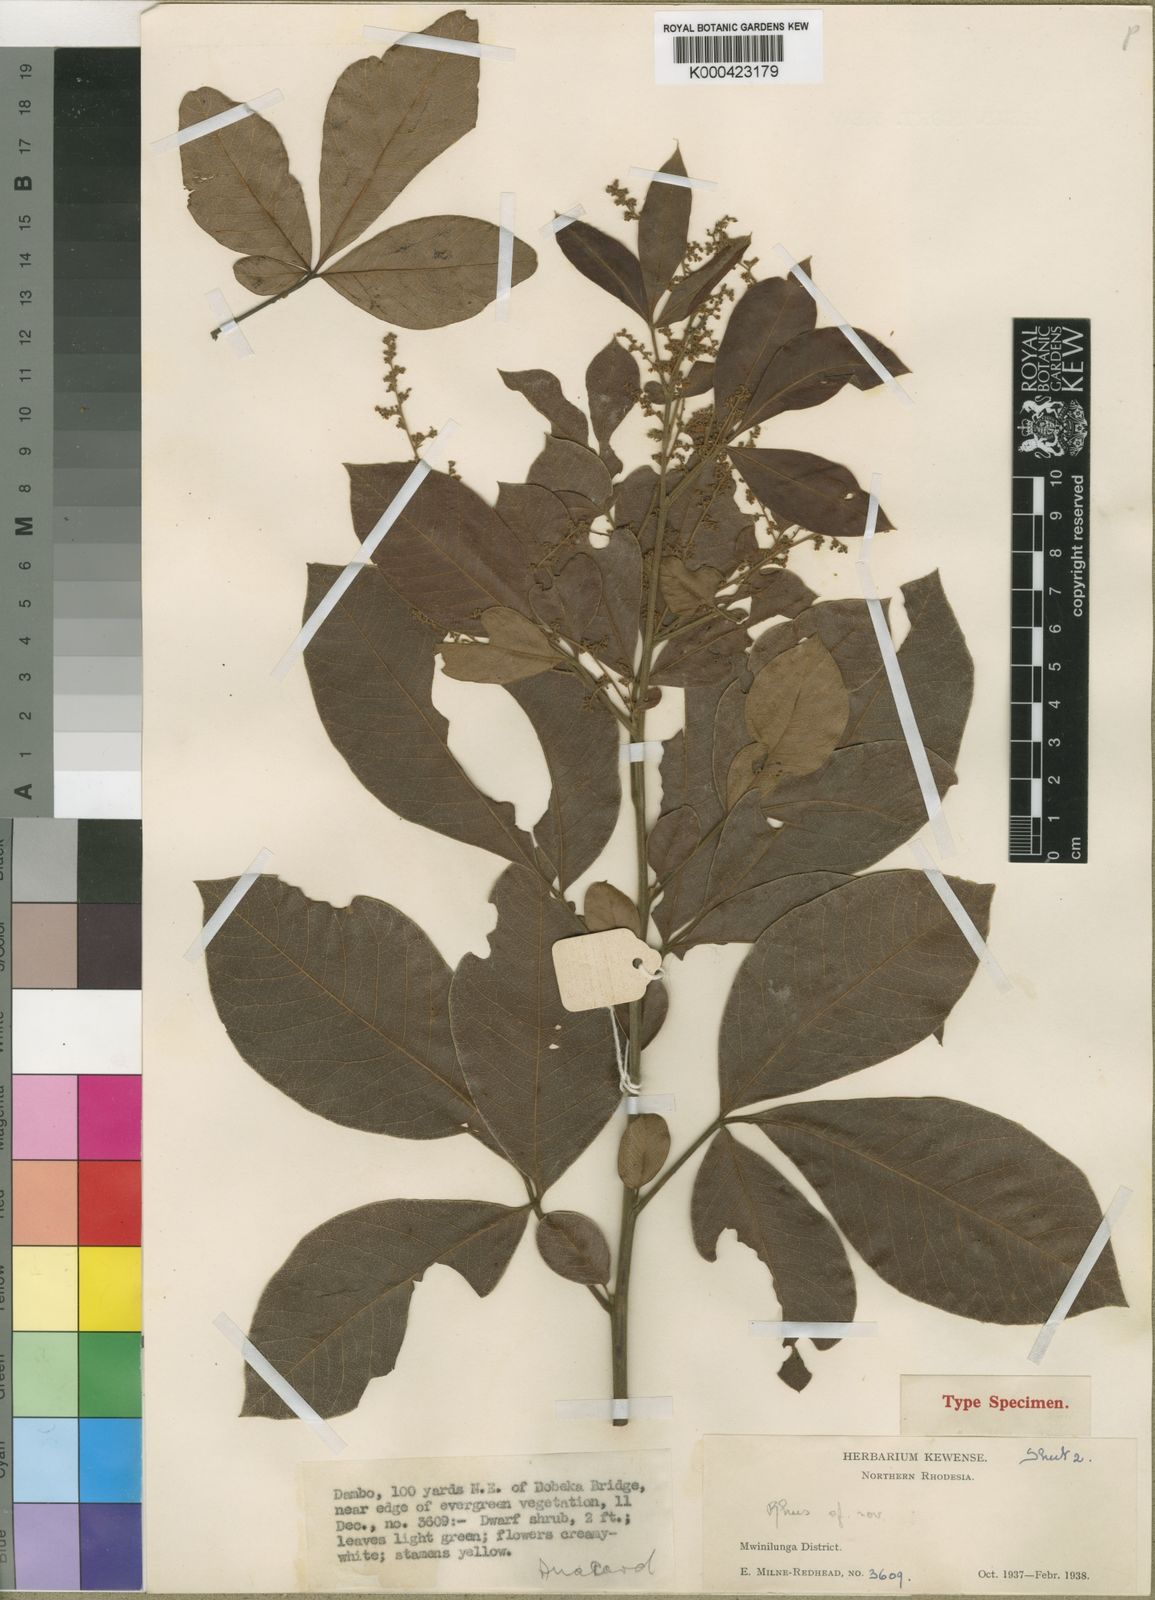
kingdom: Plantae
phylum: Tracheophyta
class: Magnoliopsida
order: Sapindales
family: Anacardiaceae
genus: Searsia
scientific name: Searsia anchietae
